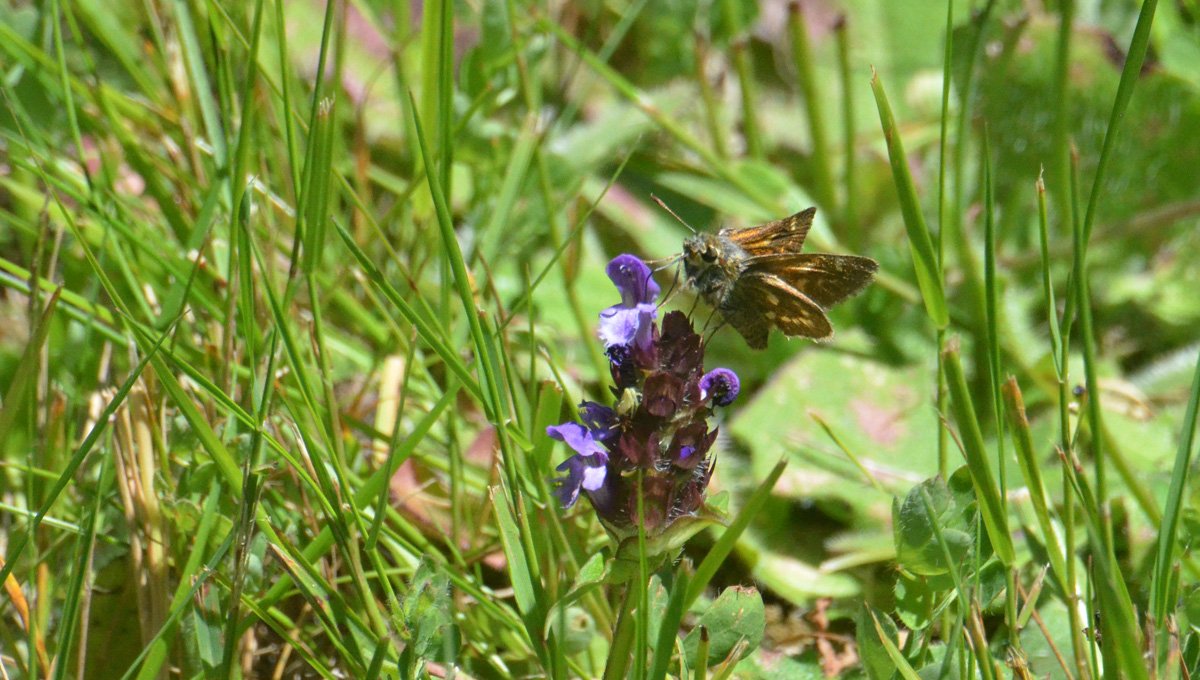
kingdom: Animalia
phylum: Arthropoda
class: Insecta
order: Lepidoptera
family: Hesperiidae
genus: Polites
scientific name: Polites mystic
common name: Sonoran Skipper
